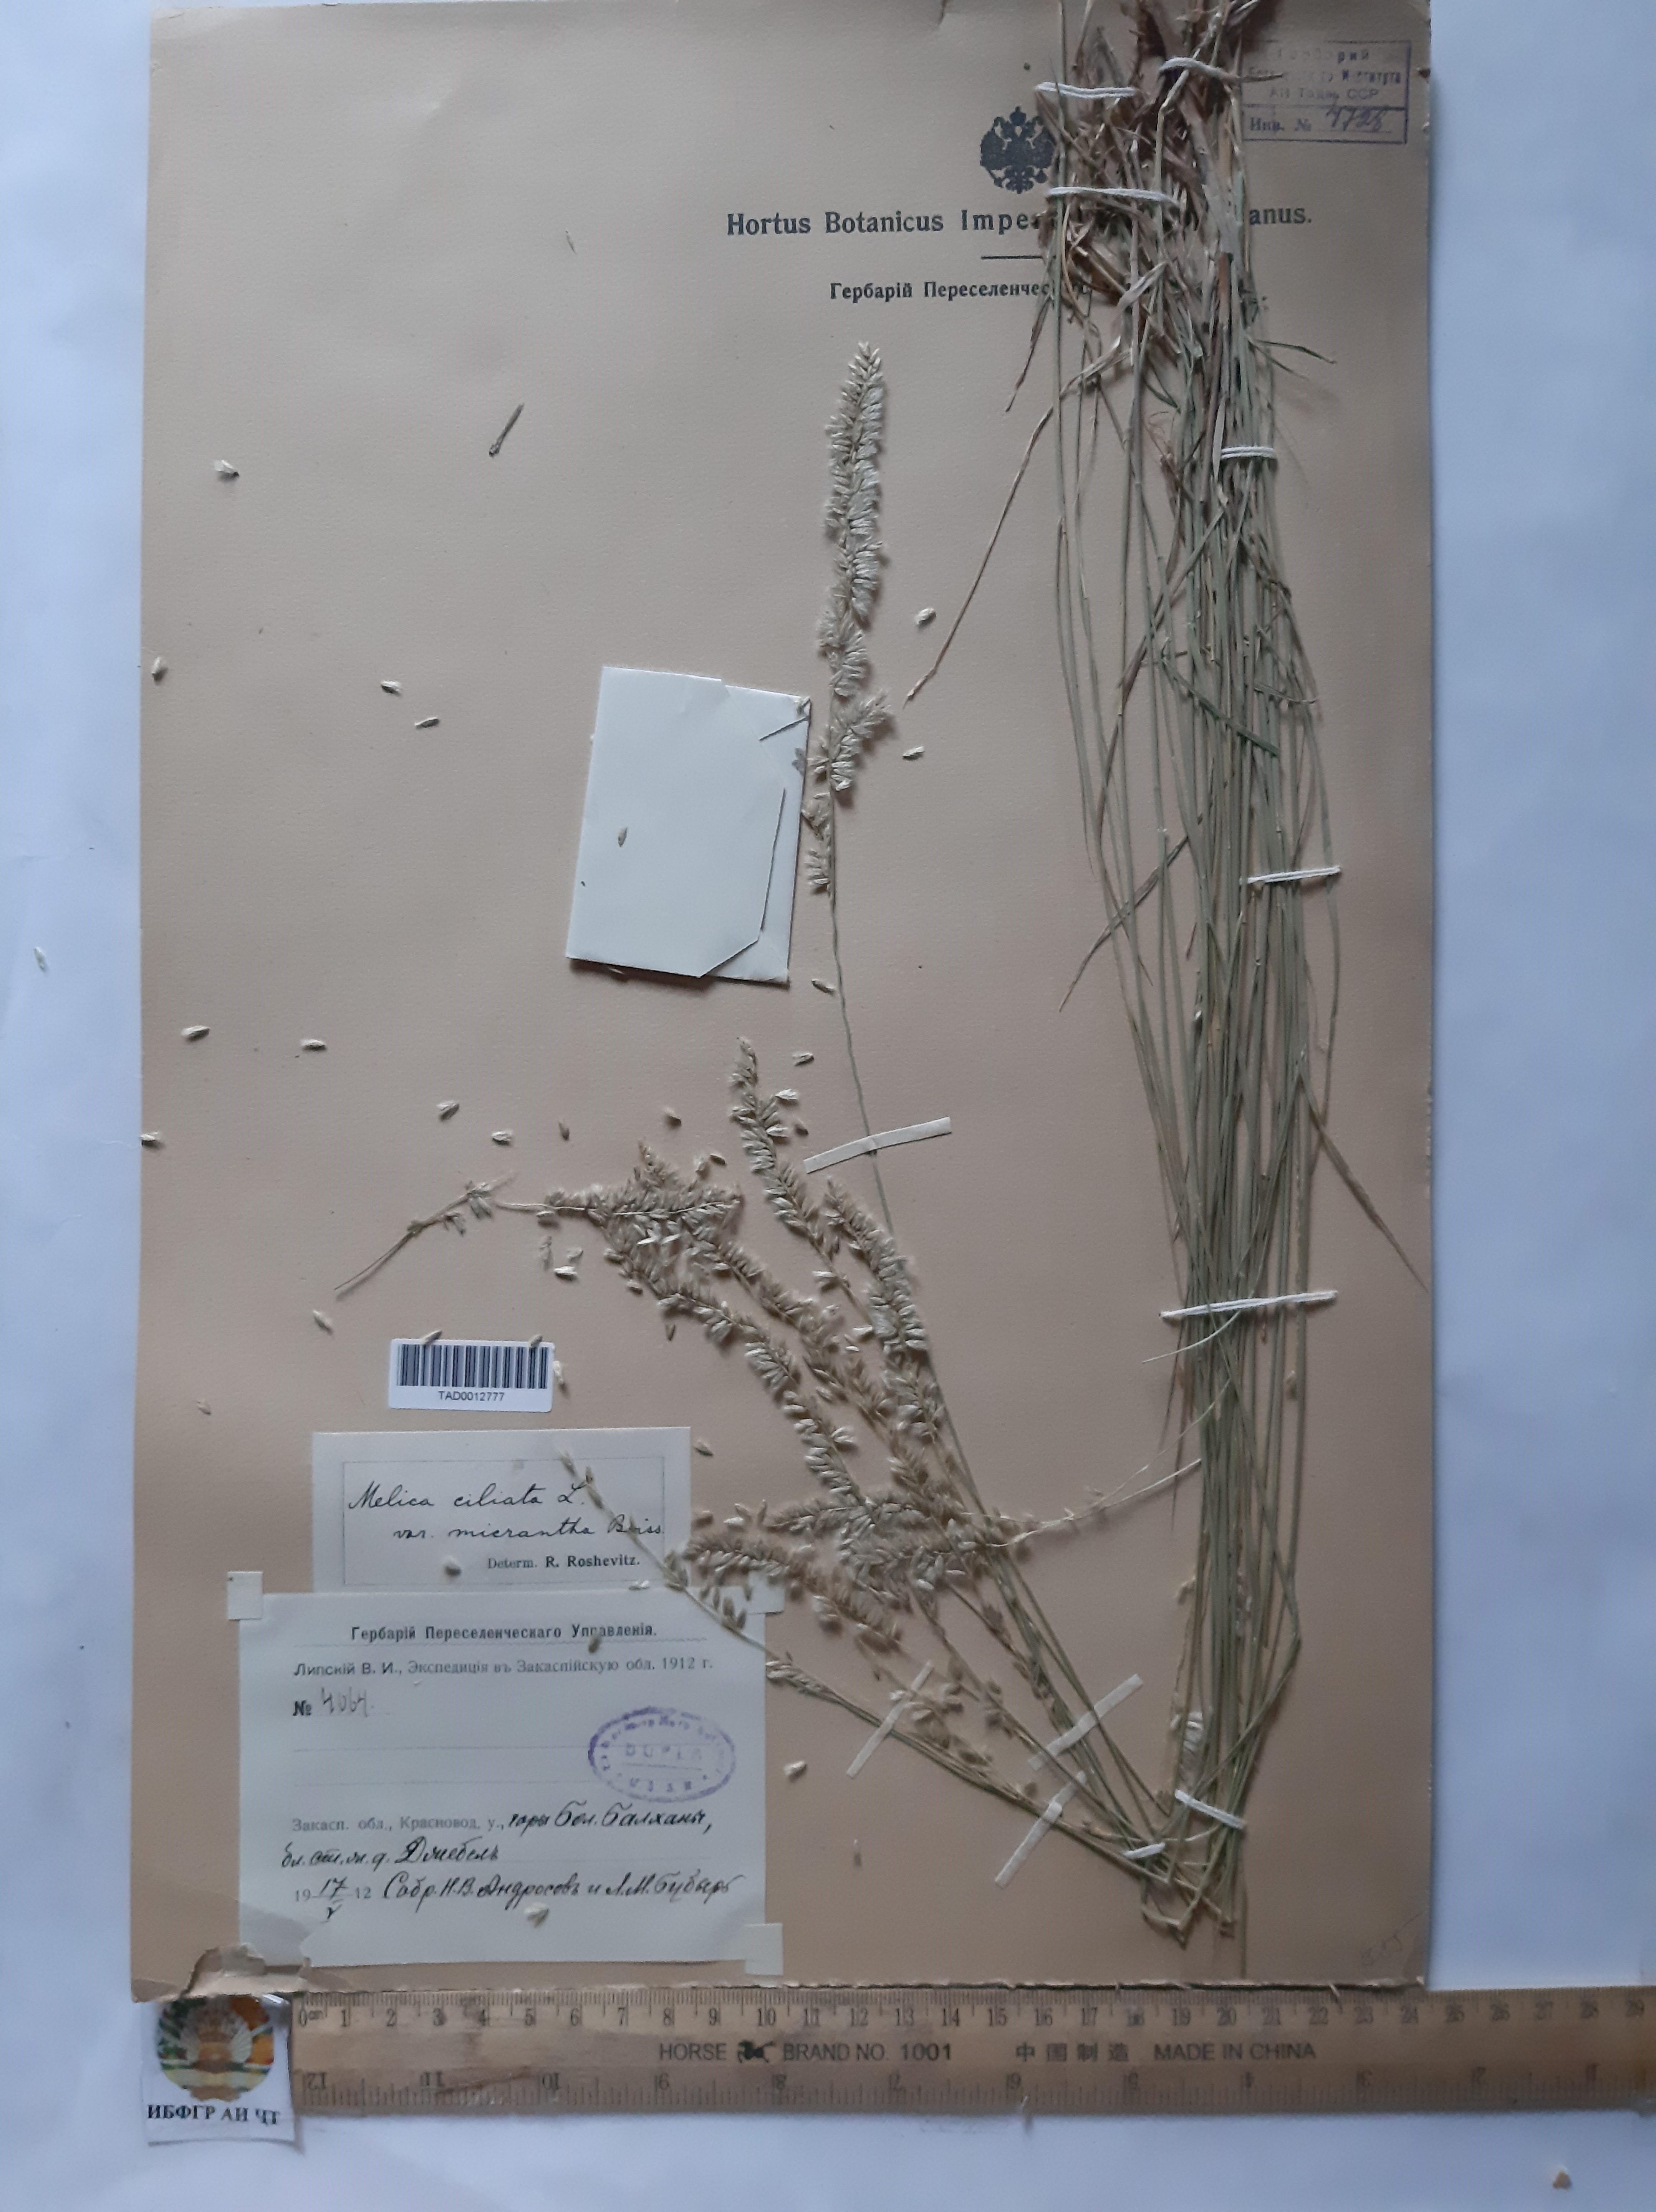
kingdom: Plantae
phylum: Tracheophyta
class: Liliopsida
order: Poales
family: Poaceae
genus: Melica
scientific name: Melica ciliata
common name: Hairy melicgrass
